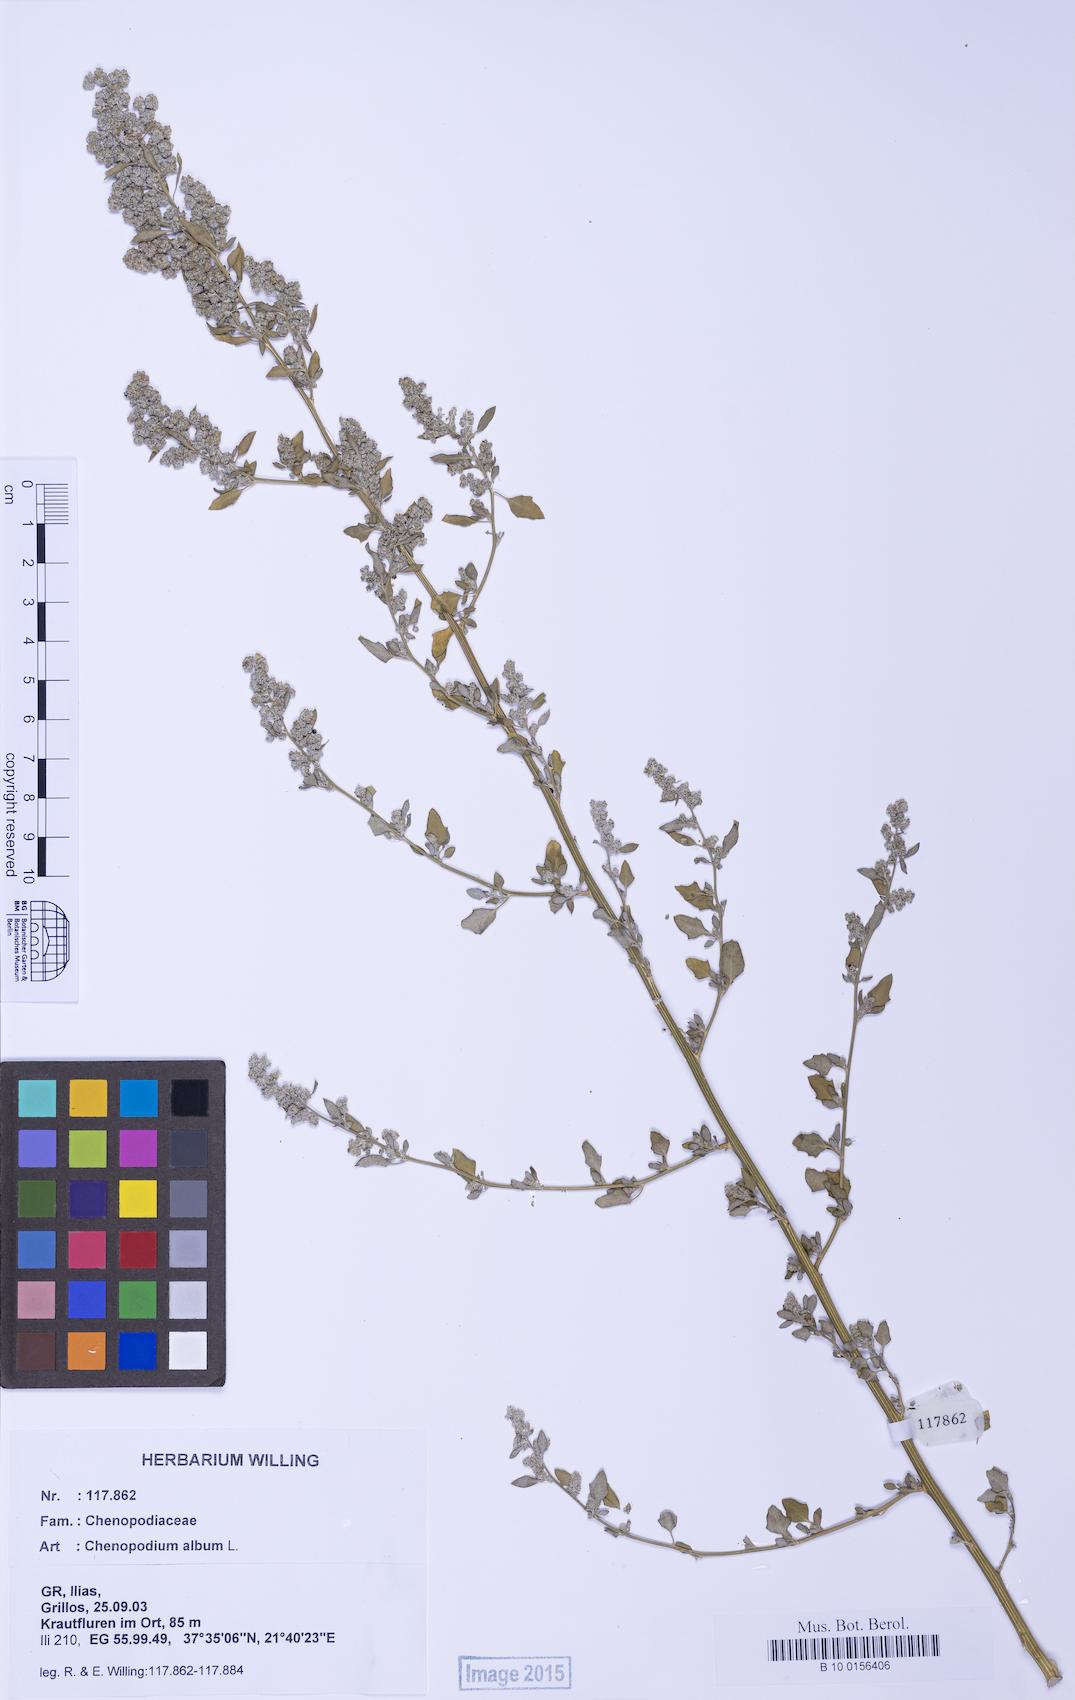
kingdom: Plantae
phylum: Tracheophyta
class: Magnoliopsida
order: Caryophyllales
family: Amaranthaceae
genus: Chenopodium
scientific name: Chenopodium opulifolium
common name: Grey goosefoot
